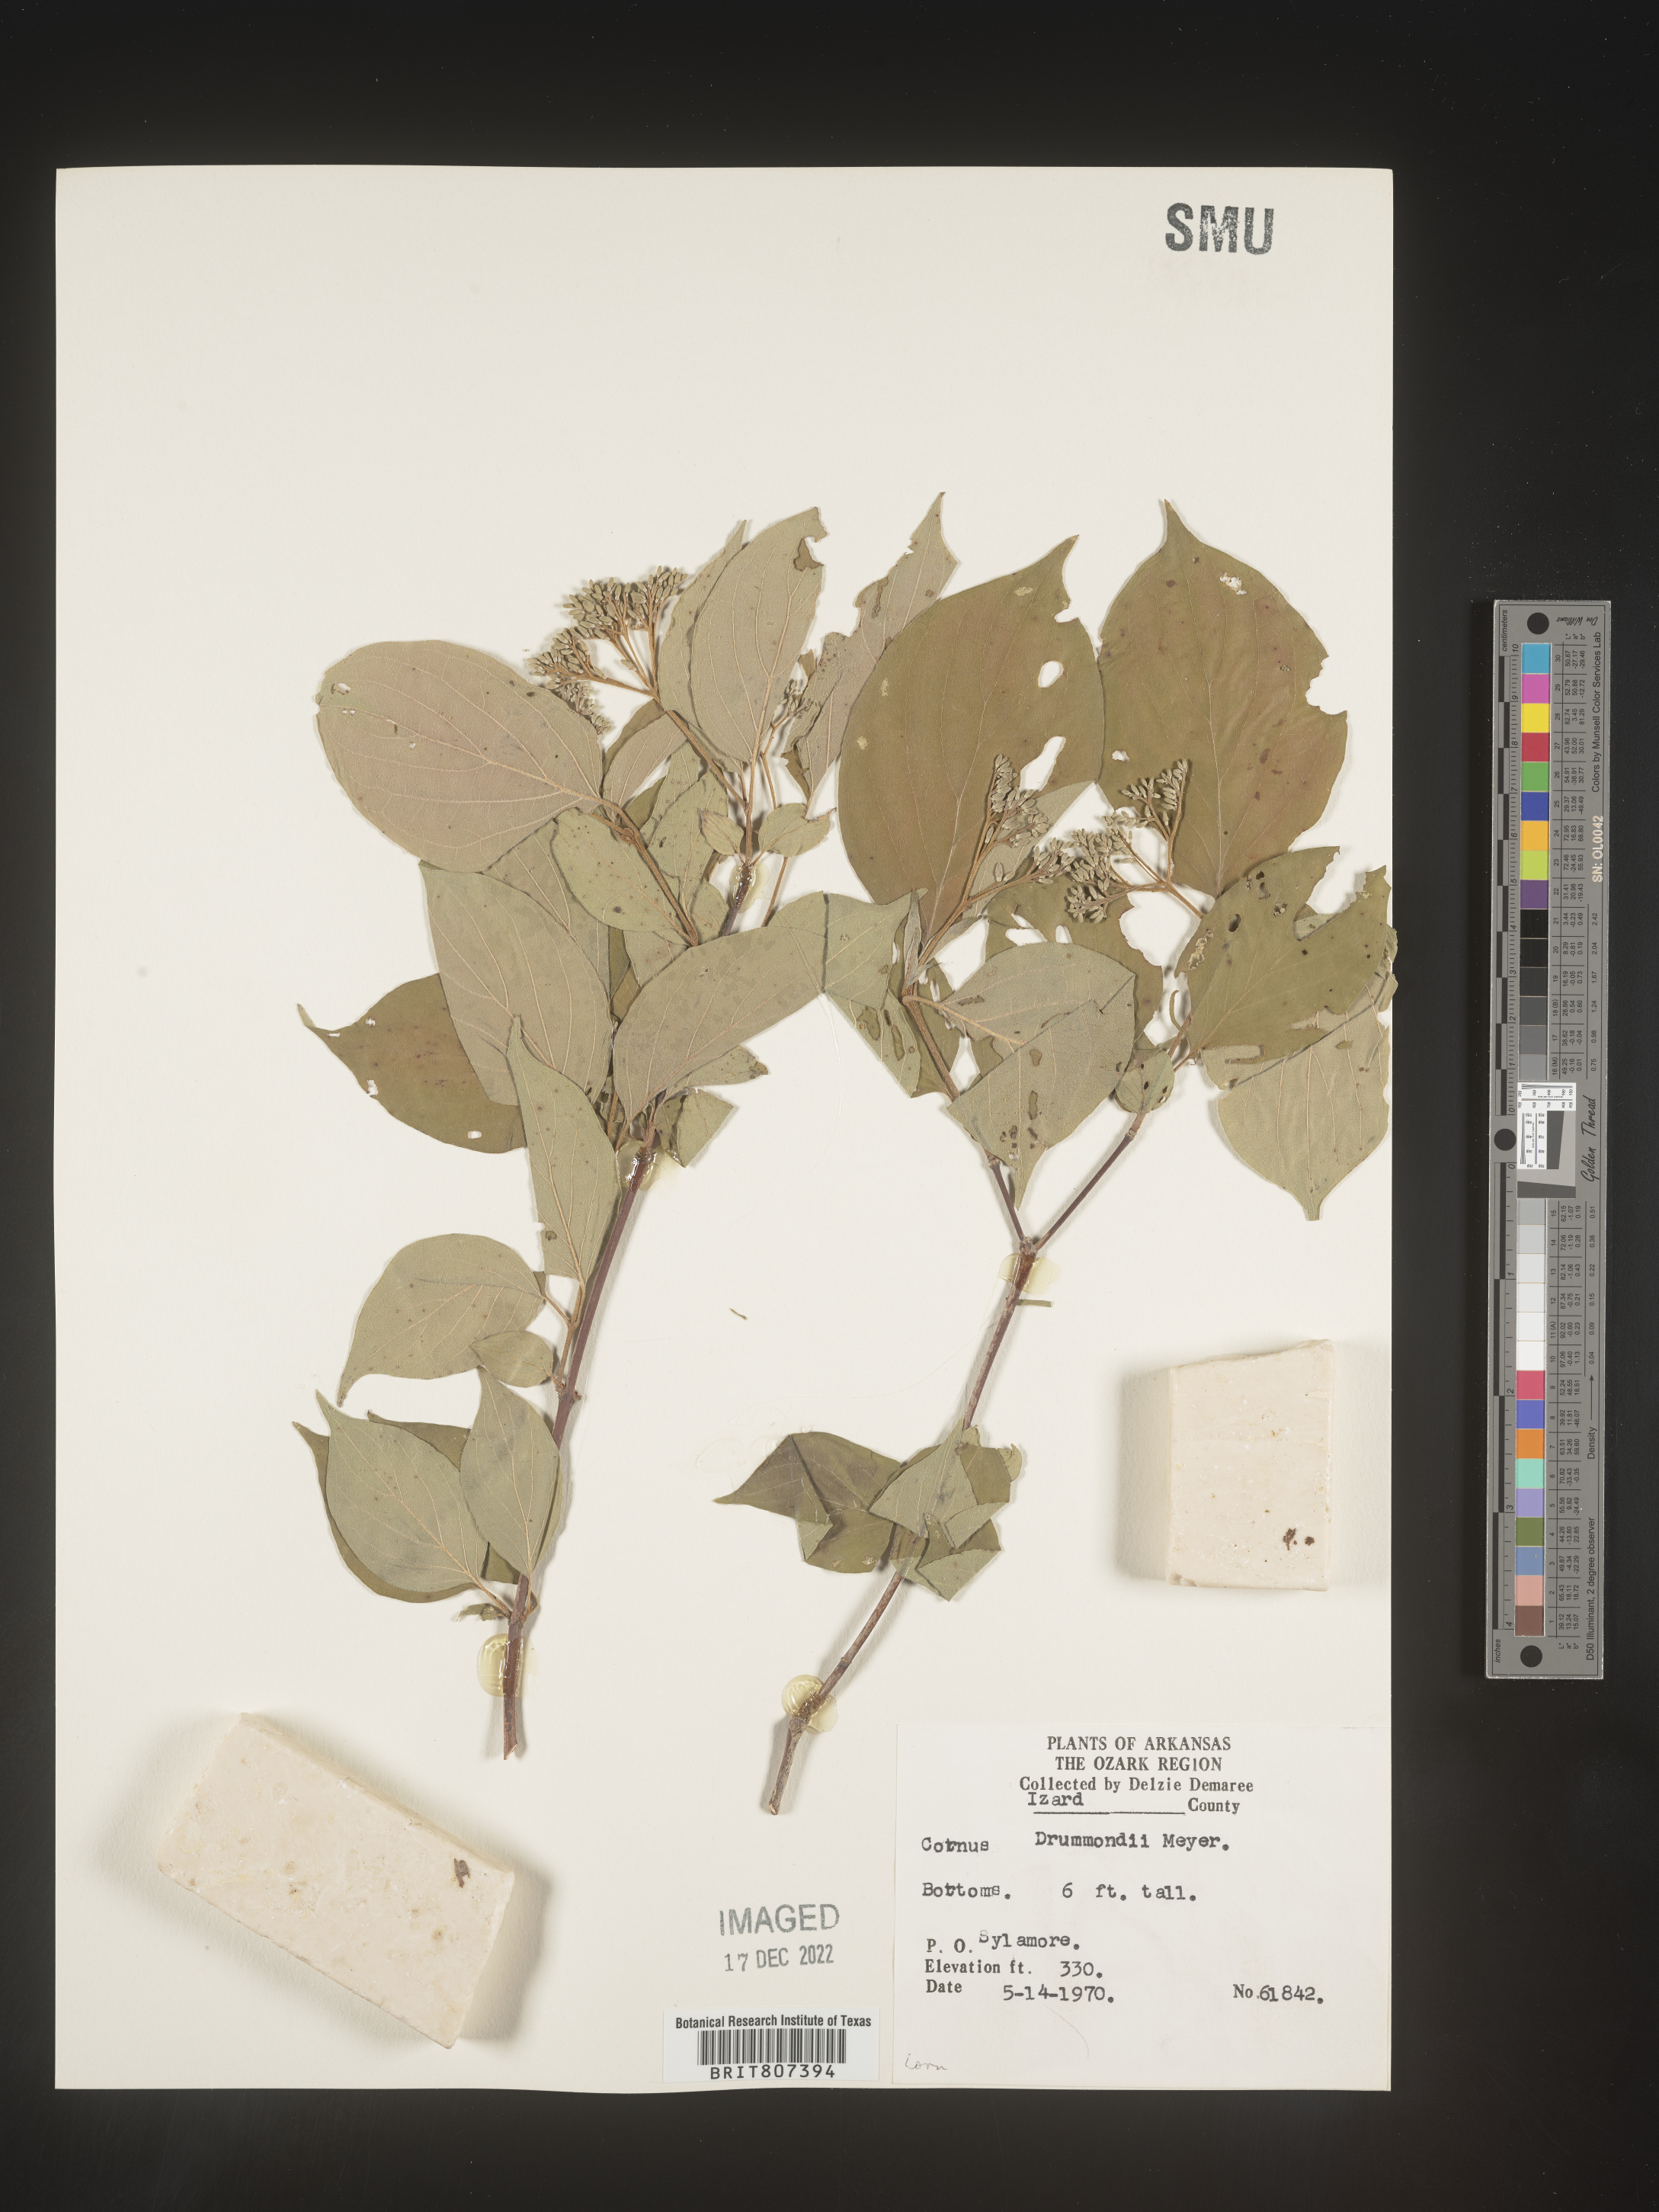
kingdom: Plantae
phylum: Tracheophyta
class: Magnoliopsida
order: Cornales
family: Cornaceae
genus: Cornus
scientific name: Cornus drummondii
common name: Rough-leaf dogwood
